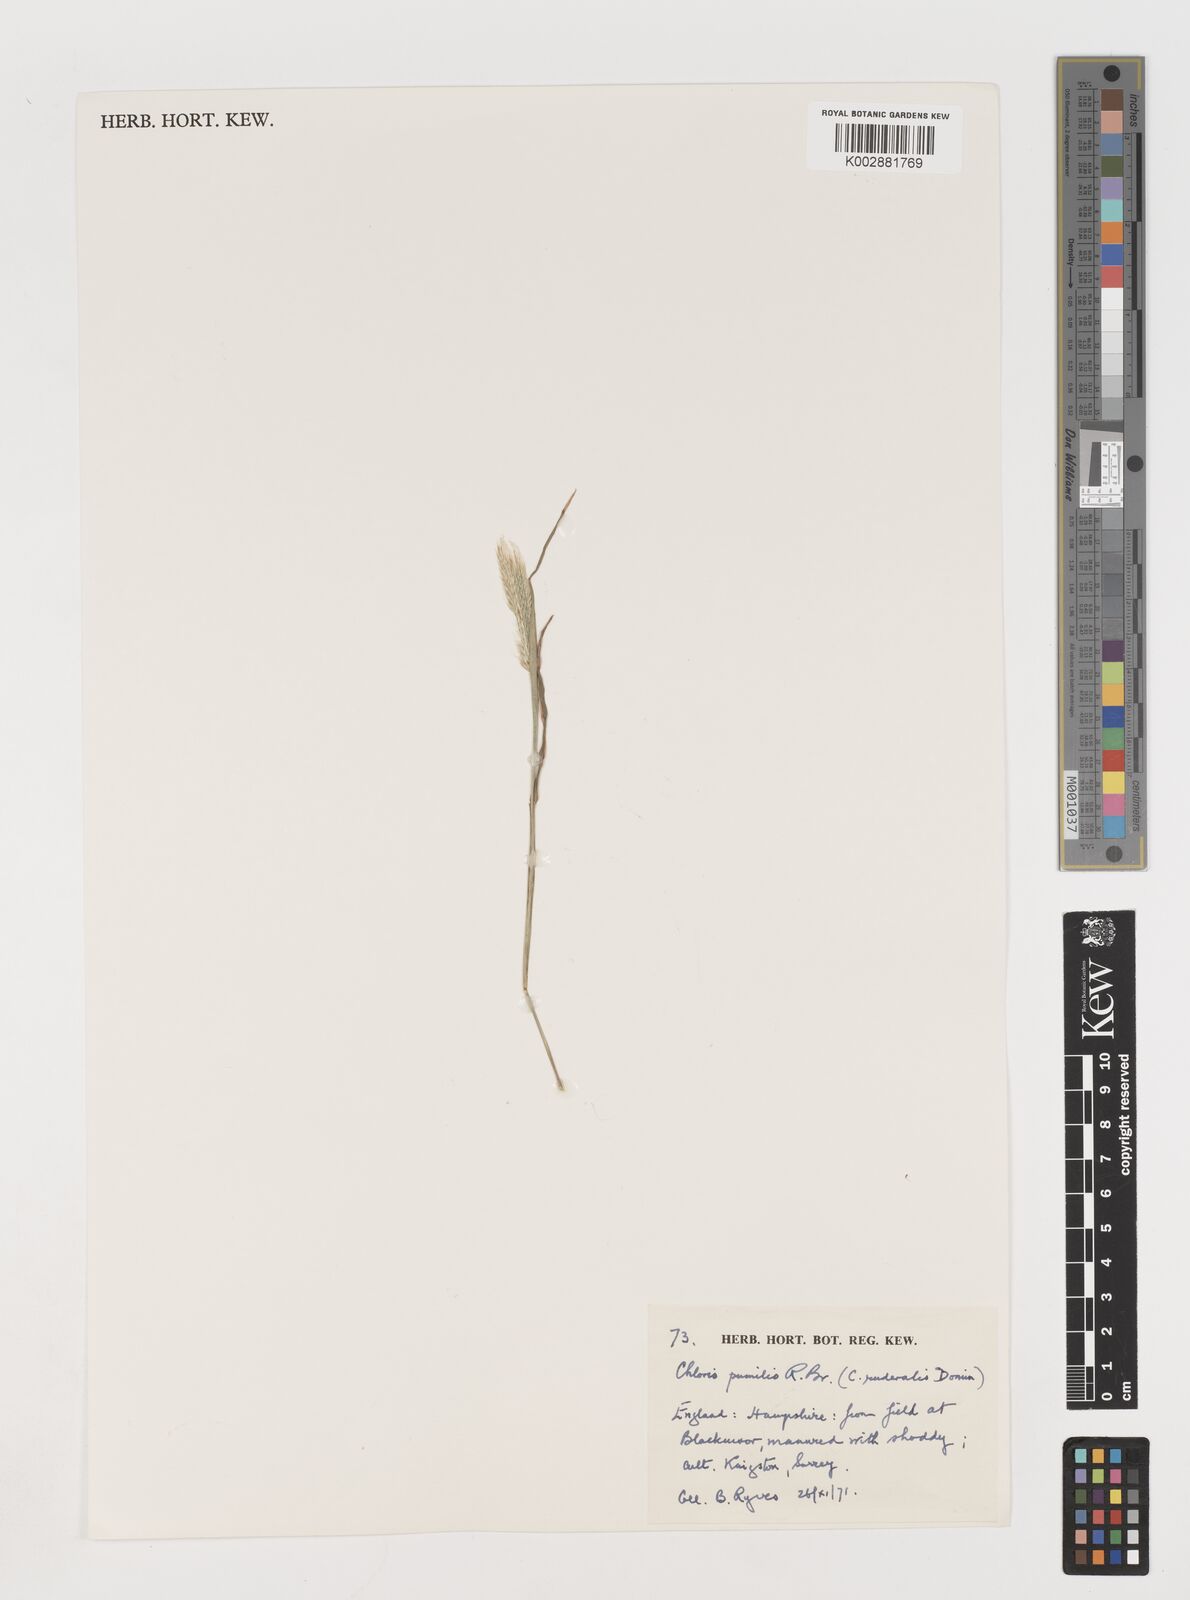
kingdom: Plantae
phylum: Tracheophyta
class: Liliopsida
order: Poales
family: Poaceae
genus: Chloris
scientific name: Chloris pumilio
